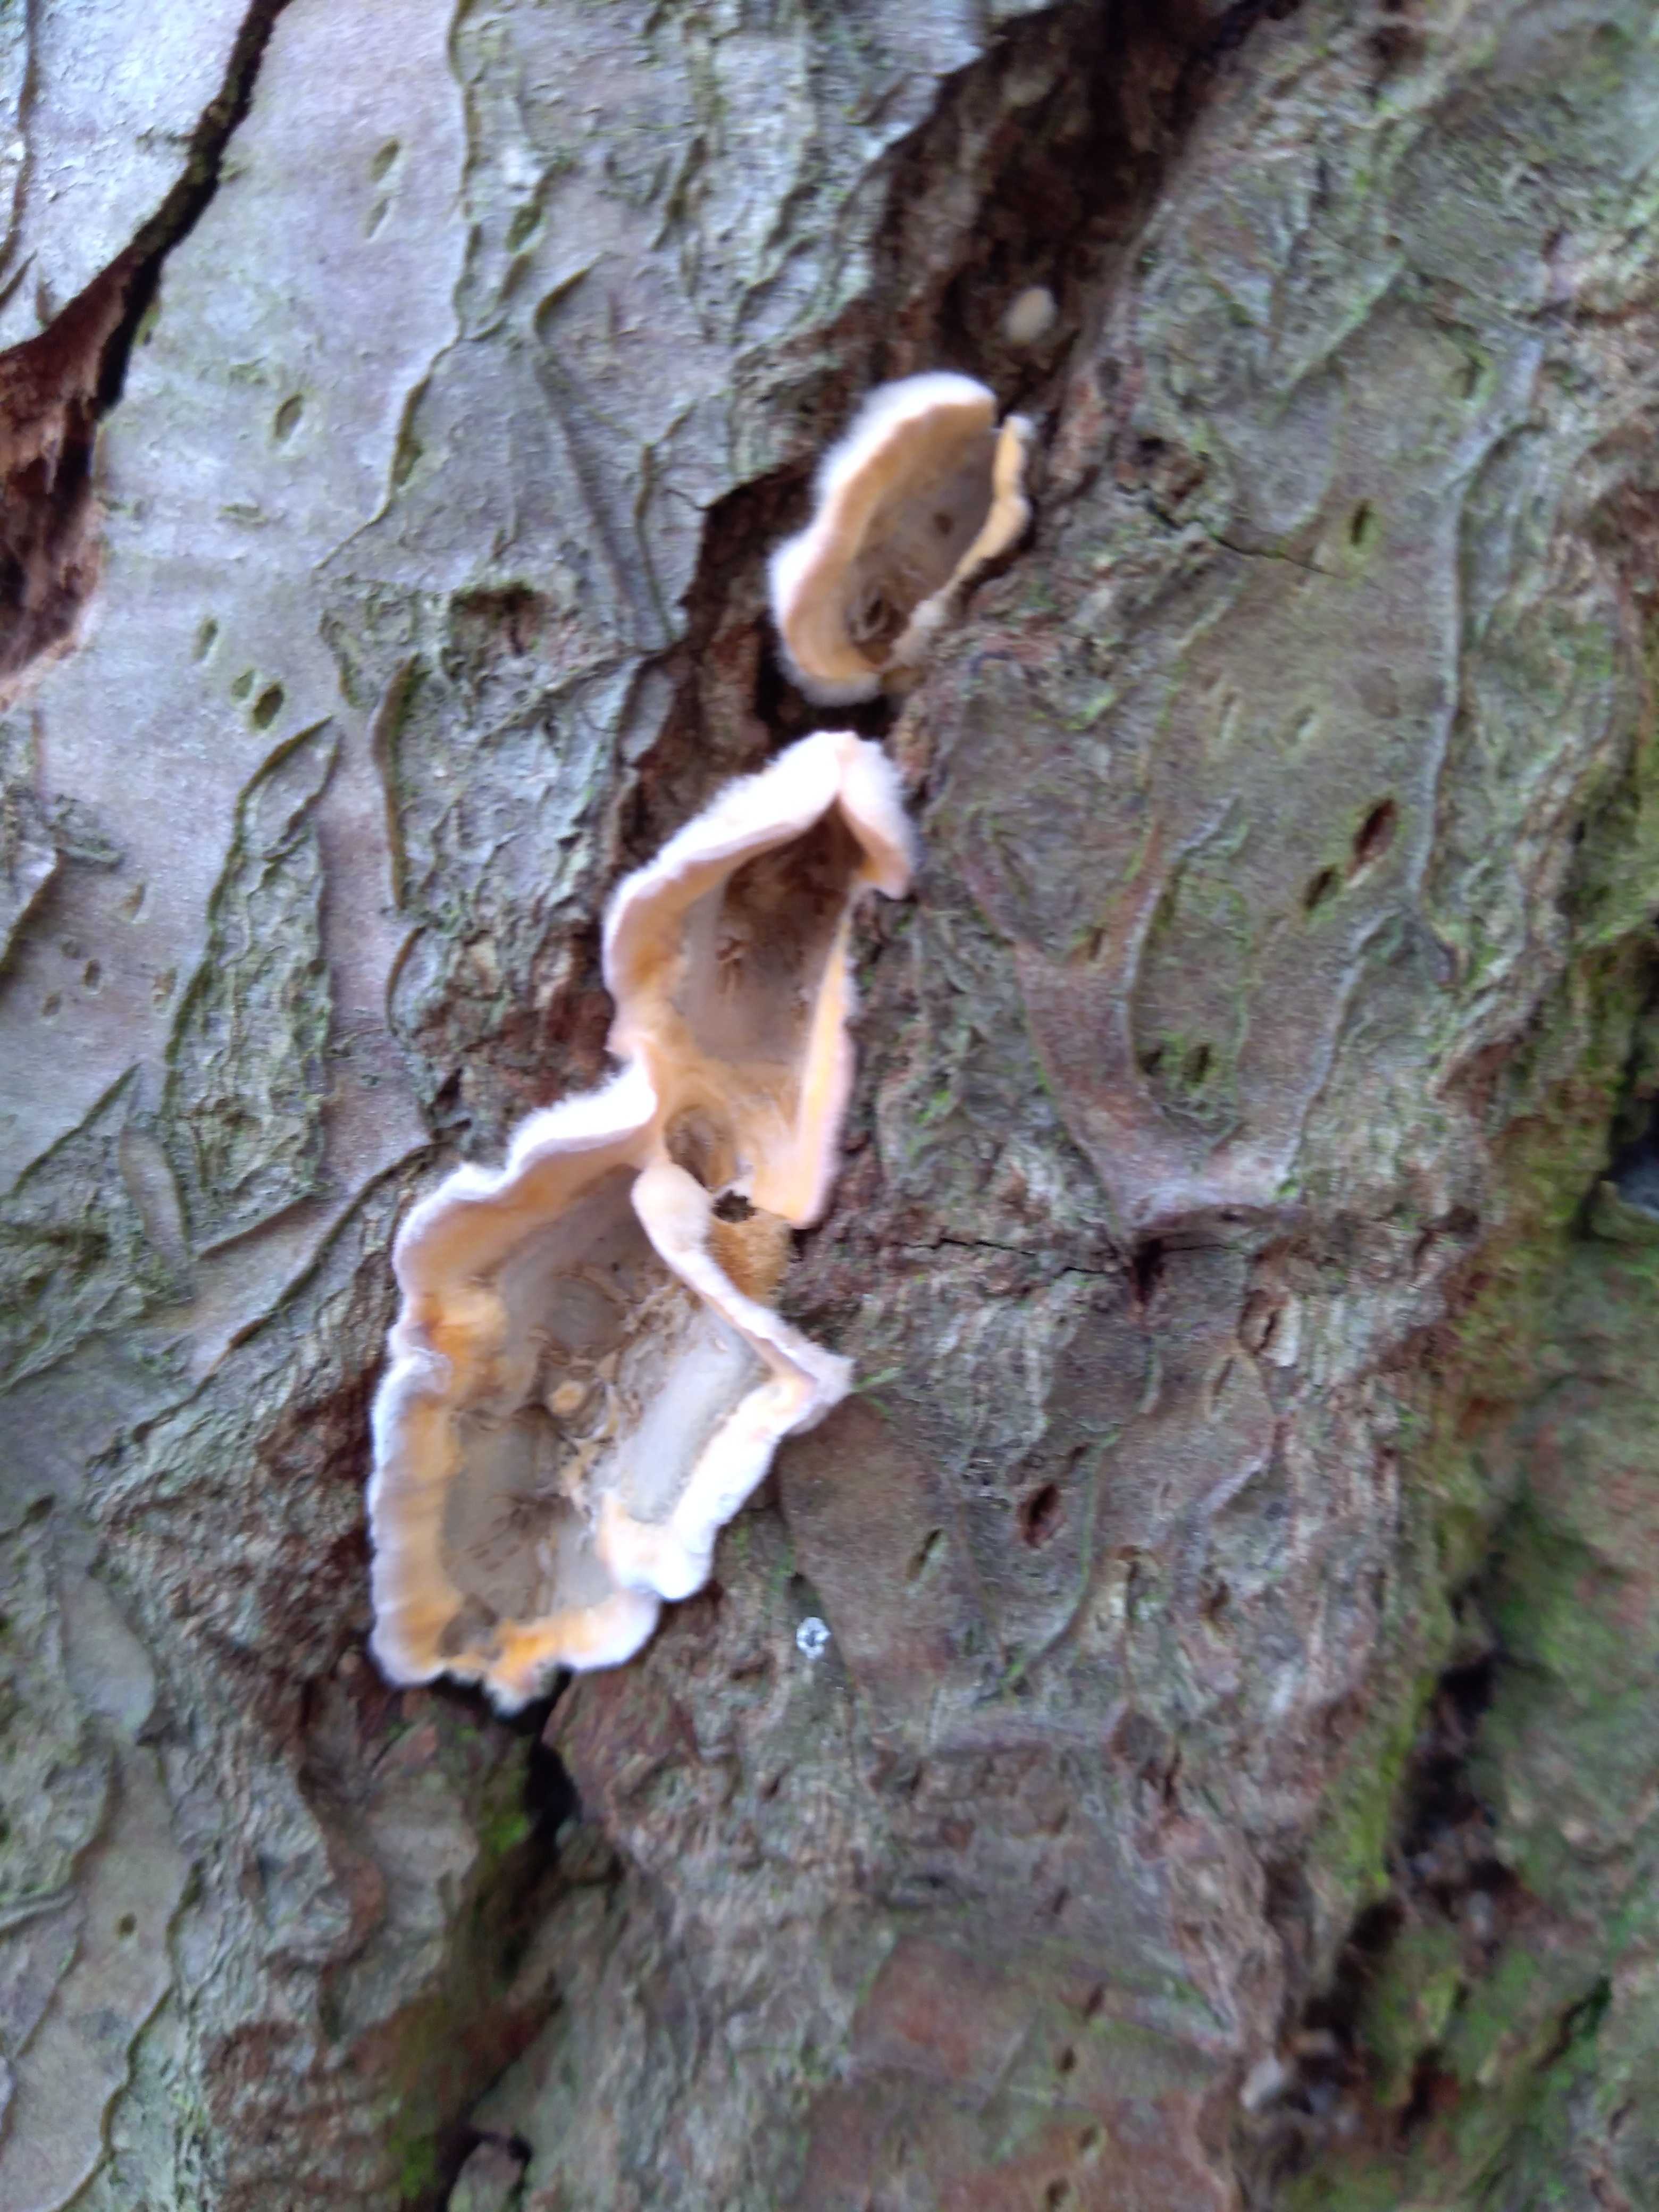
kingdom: Fungi
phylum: Basidiomycota
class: Agaricomycetes
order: Russulales
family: Stereaceae
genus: Stereum
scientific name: Stereum hirsutum
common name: håret lædersvamp
